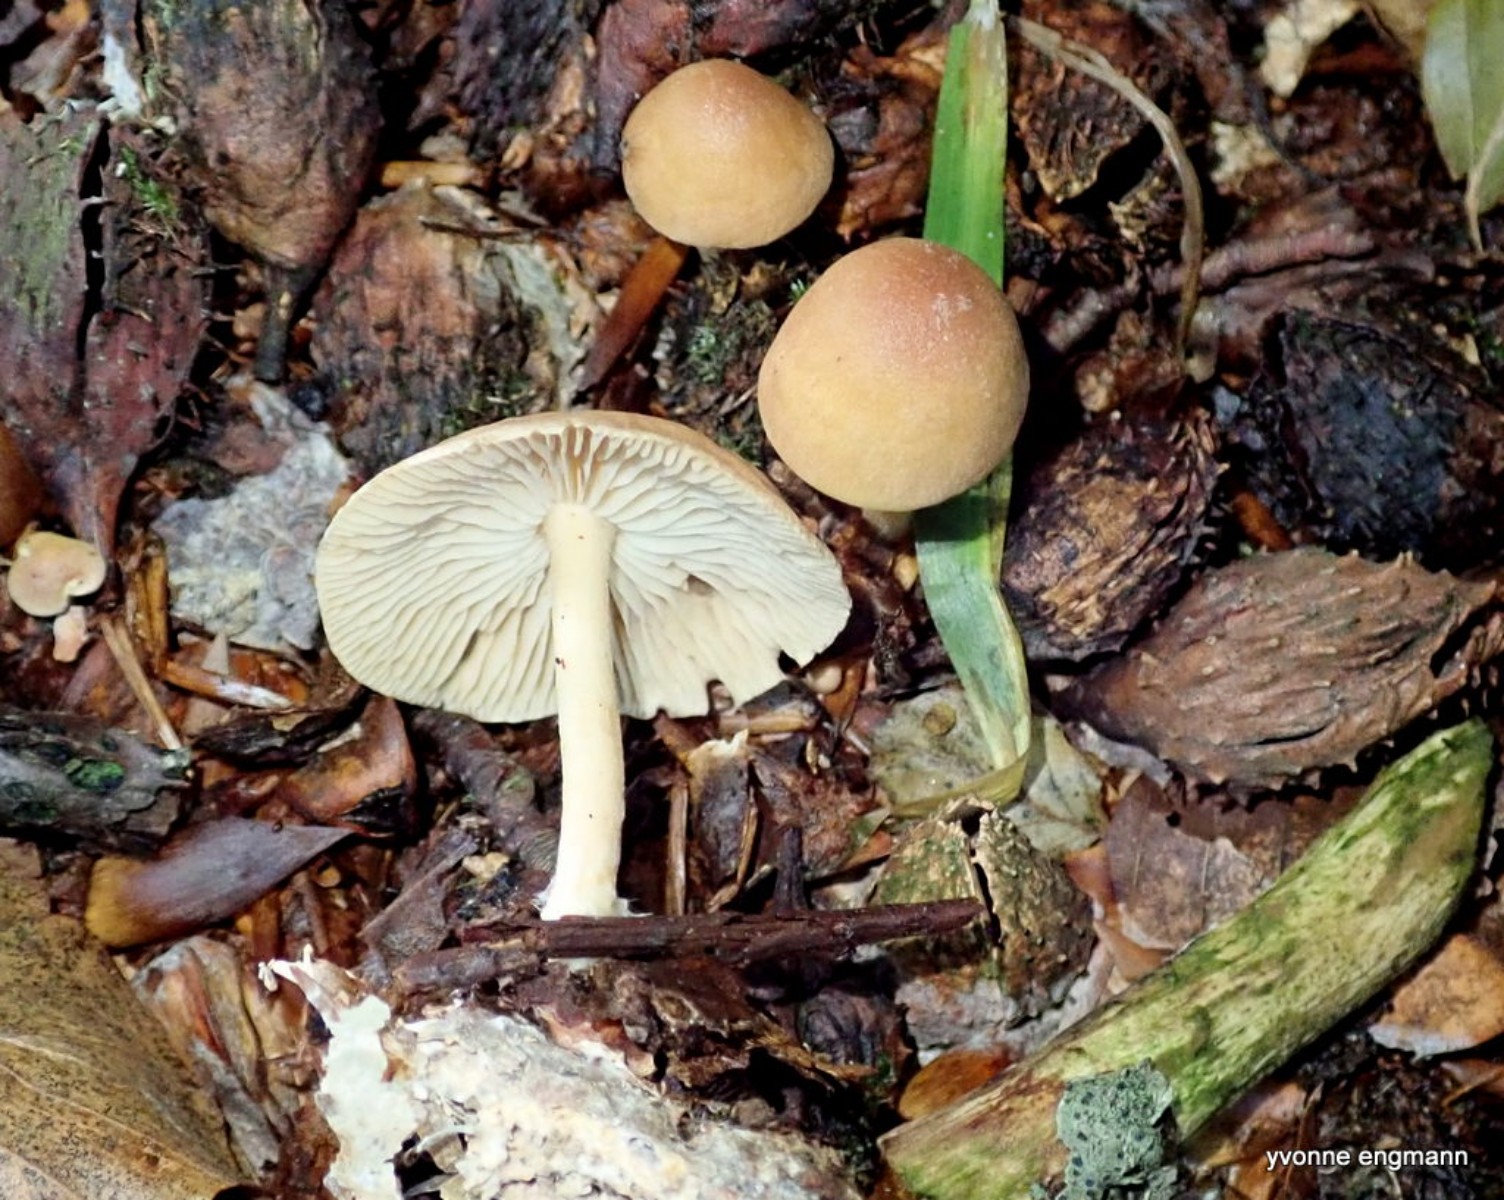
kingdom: Fungi
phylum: Basidiomycota
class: Agaricomycetes
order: Agaricales
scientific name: Agaricales
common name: champignonordenen
